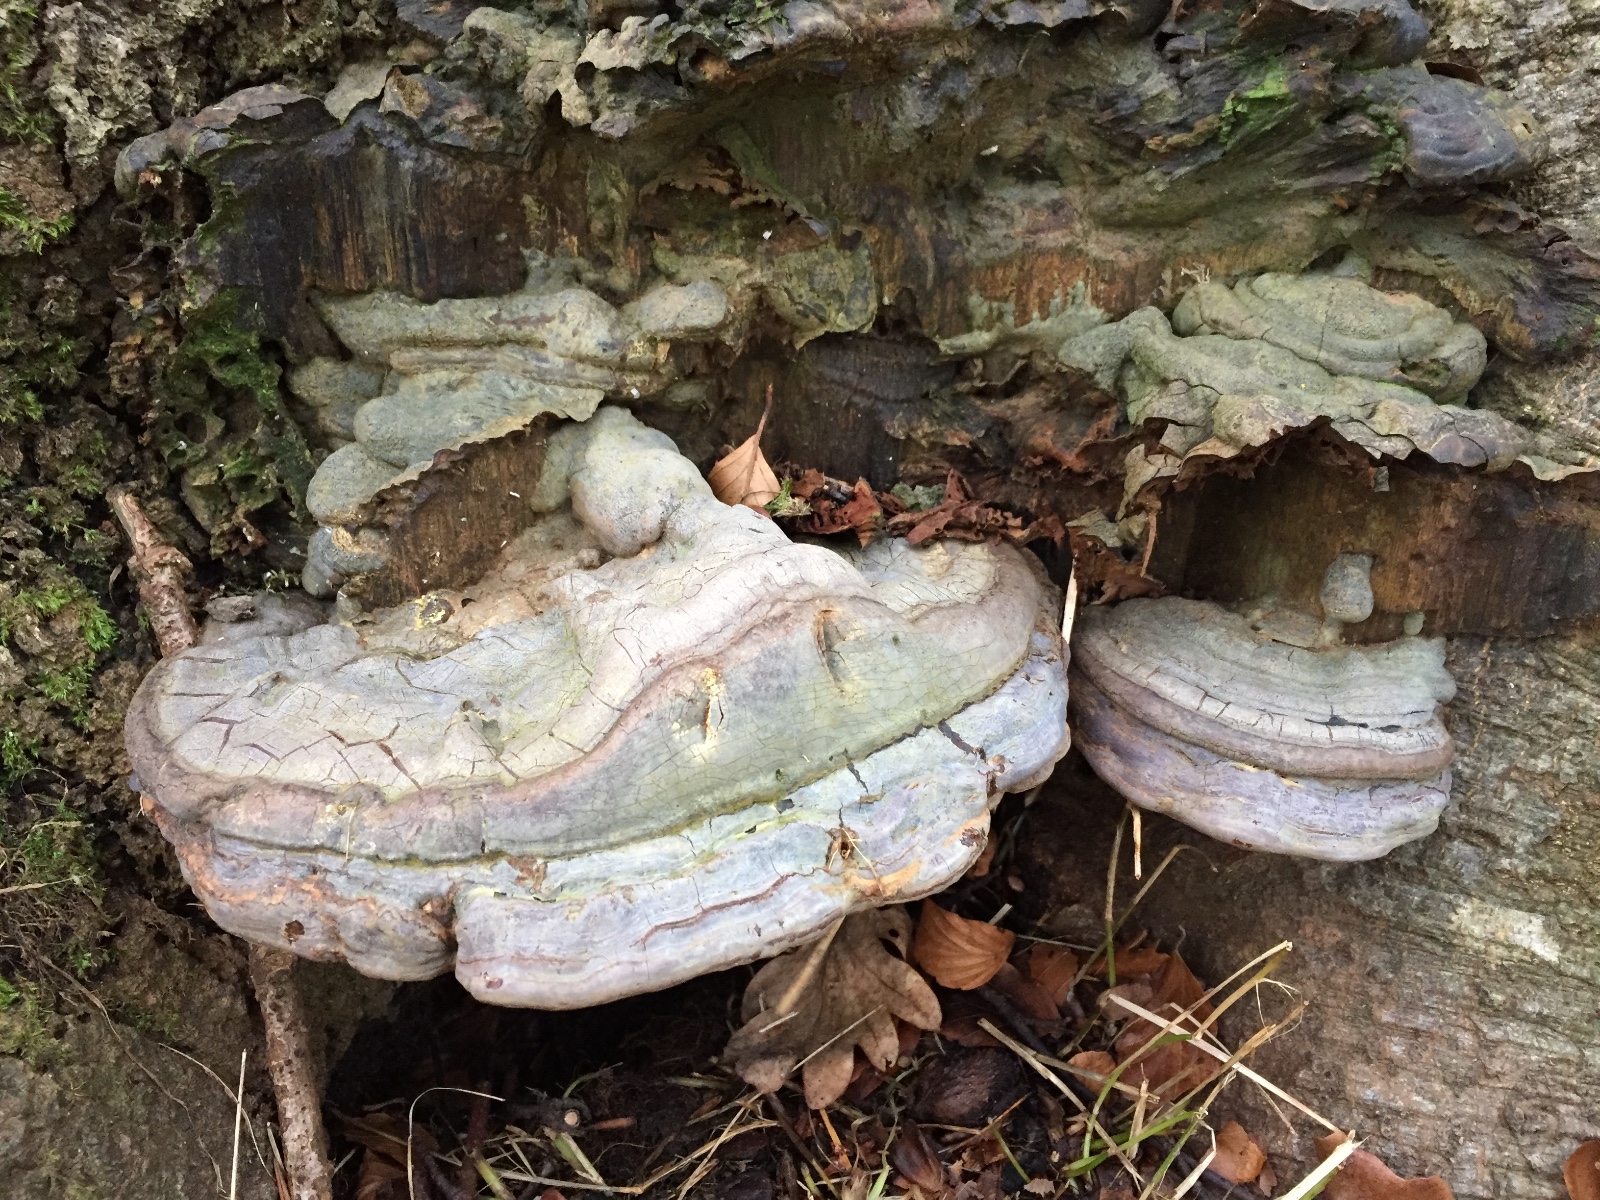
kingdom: Fungi
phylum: Basidiomycota
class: Agaricomycetes
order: Polyporales
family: Polyporaceae
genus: Ganoderma
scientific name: Ganoderma pfeifferi
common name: kobberrød lakporesvamp
